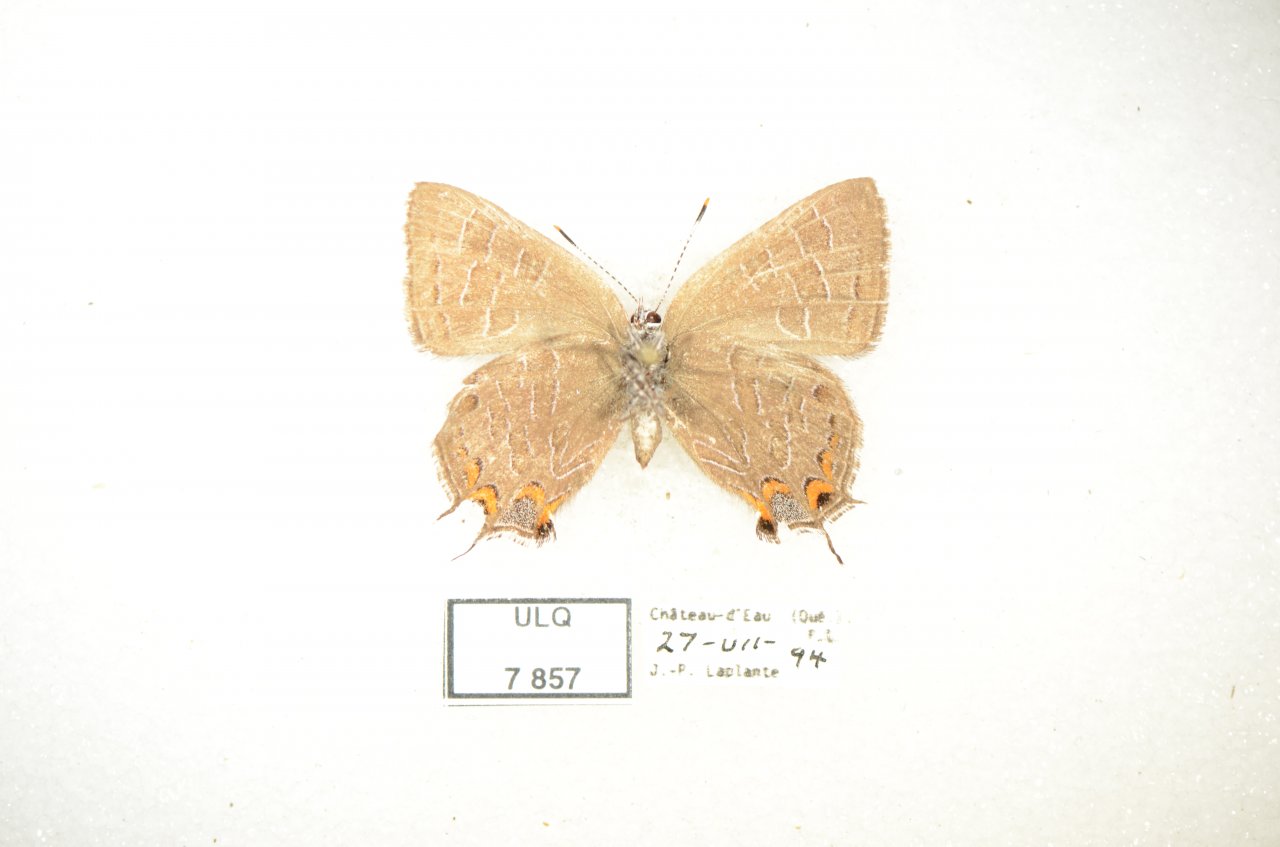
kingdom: Animalia
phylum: Arthropoda
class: Insecta
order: Lepidoptera
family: Lycaenidae
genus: Satyrium
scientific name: Satyrium liparops
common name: Striped Hairstreak
